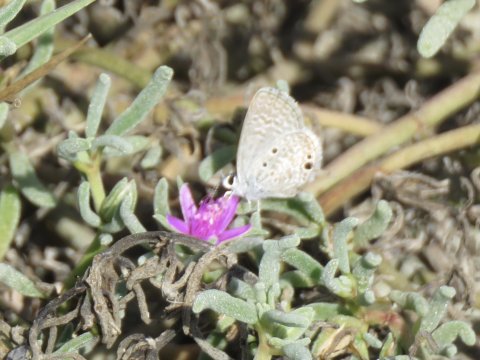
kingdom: Animalia
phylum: Arthropoda
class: Insecta
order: Lepidoptera
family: Lycaenidae
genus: Hemiargus
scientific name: Hemiargus ceraunus
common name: Ceraunus Blue
